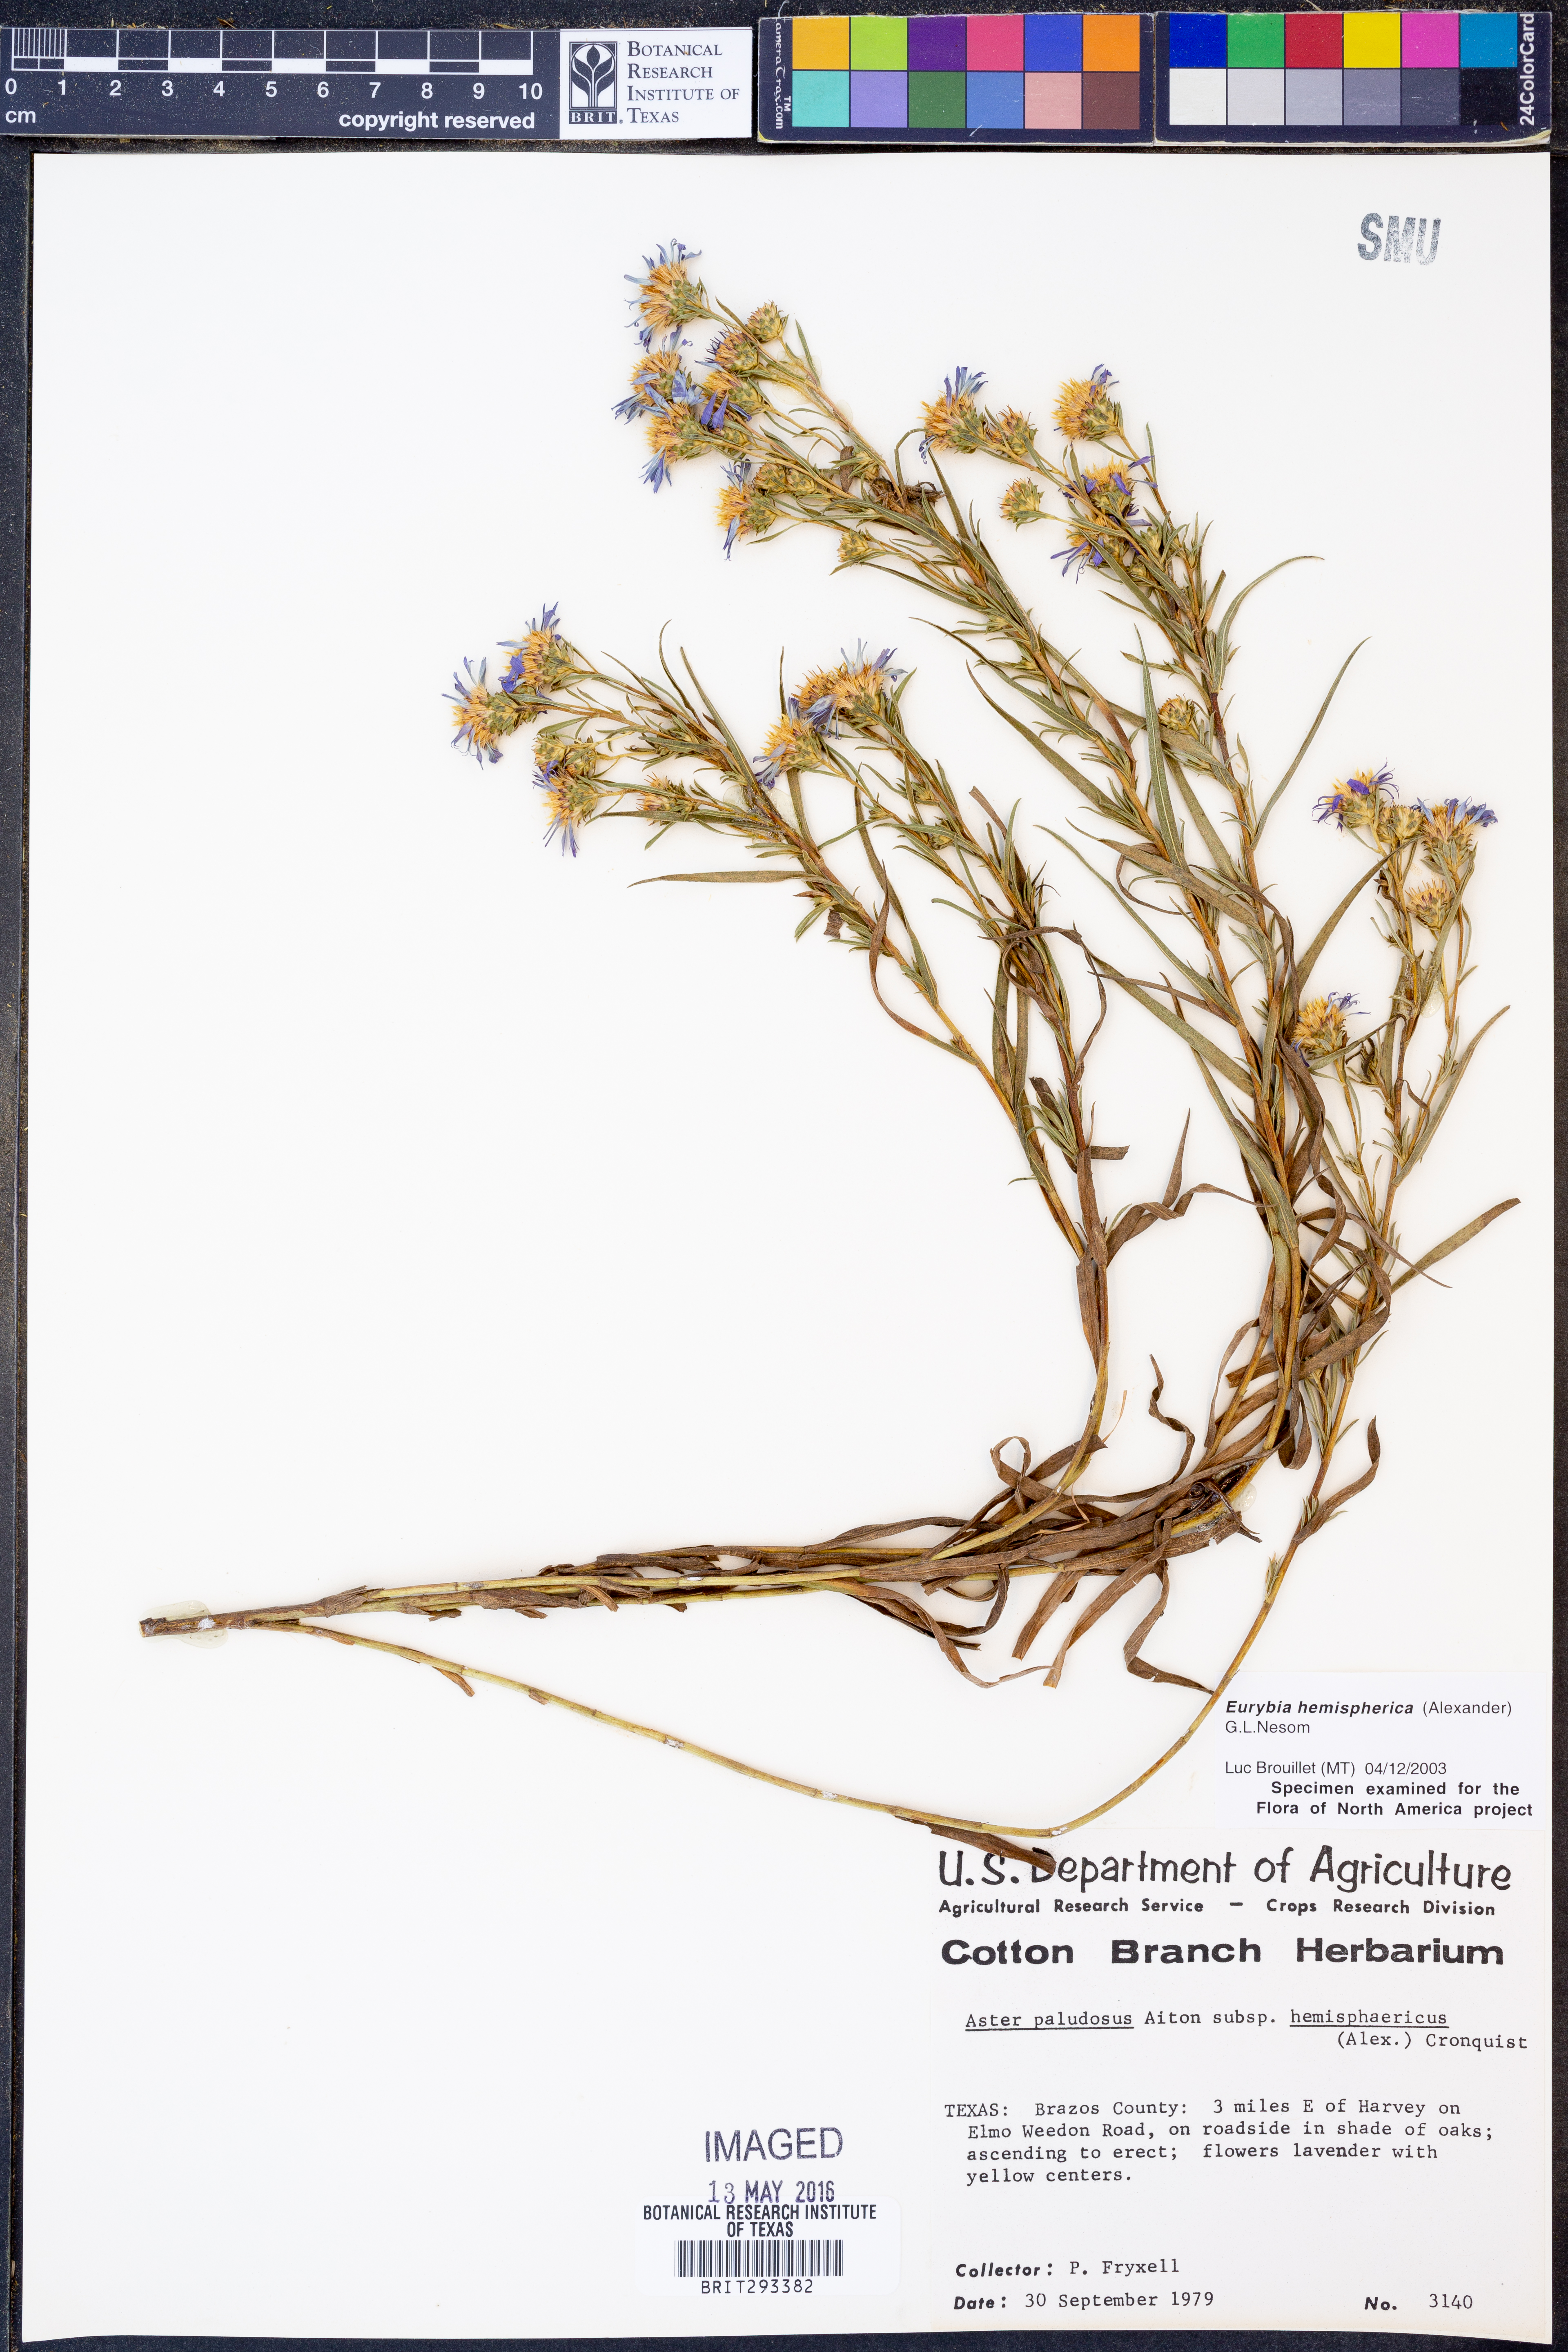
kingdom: Plantae
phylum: Tracheophyta
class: Magnoliopsida
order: Asterales
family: Asteraceae
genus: Eurybia
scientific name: Eurybia hemispherica
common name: Showy aster
